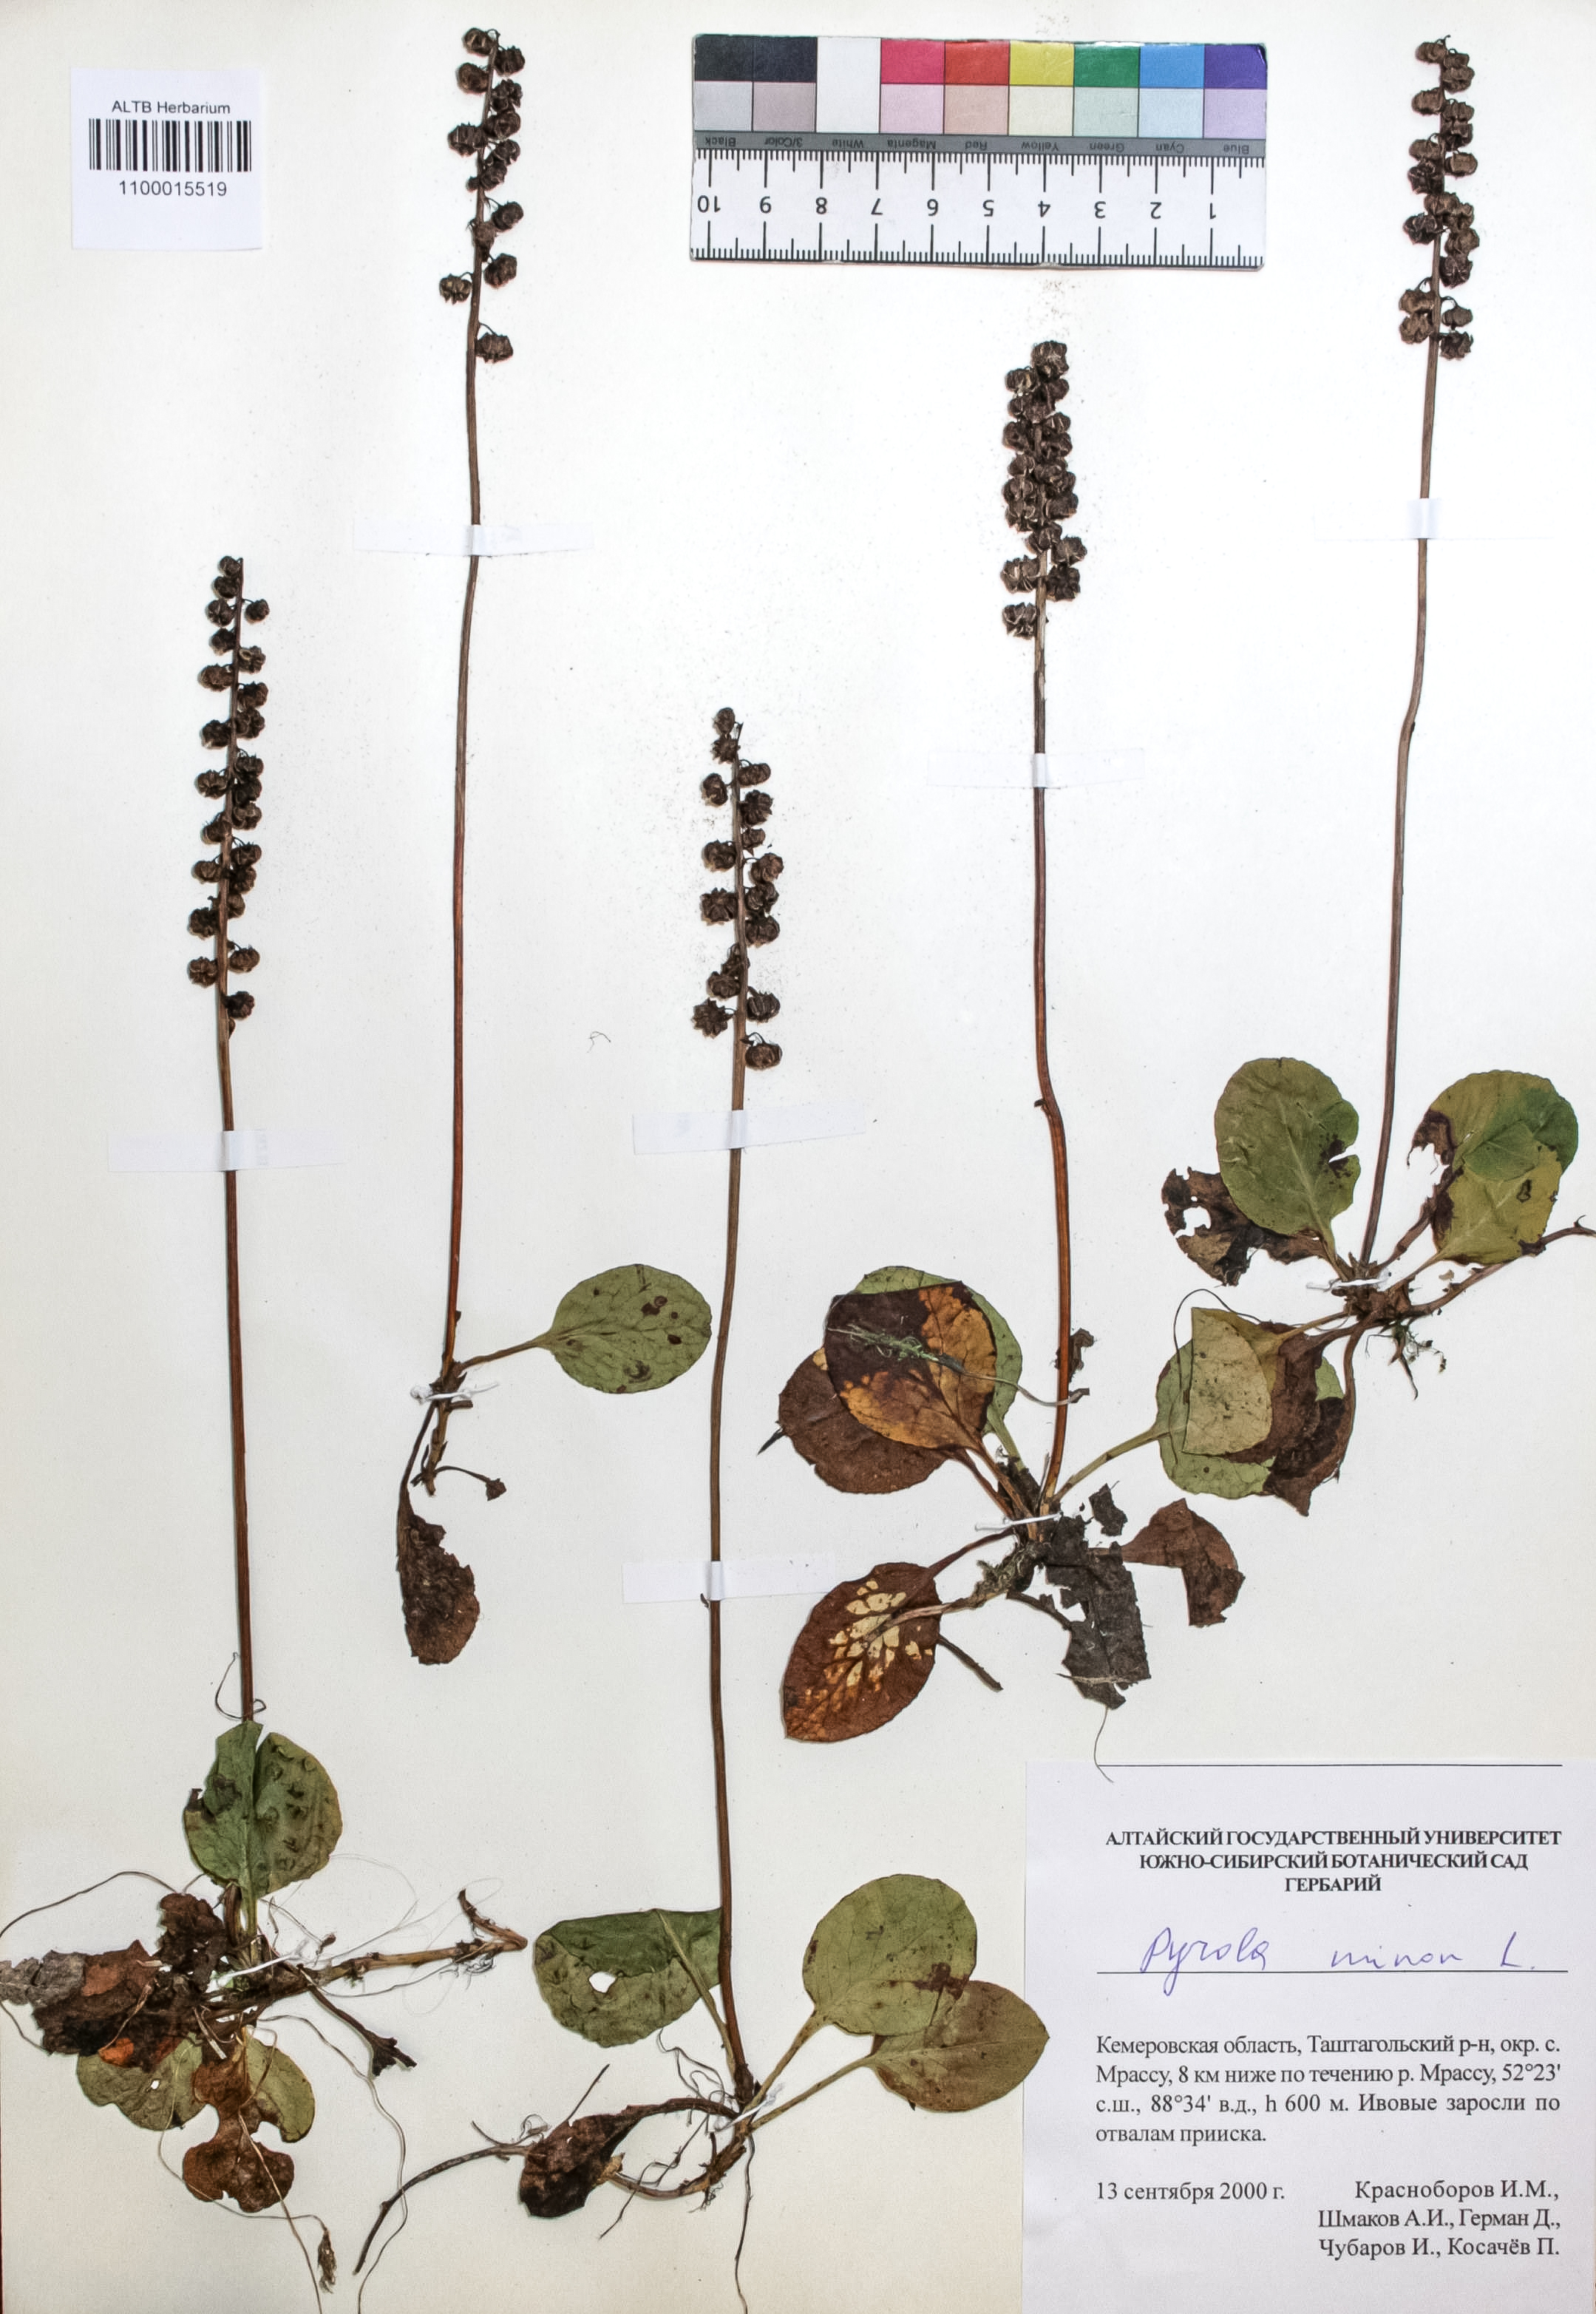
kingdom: Plantae
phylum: Tracheophyta
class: Magnoliopsida
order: Ericales
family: Ericaceae
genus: Pyrola
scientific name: Pyrola minor
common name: Common wintergreen
